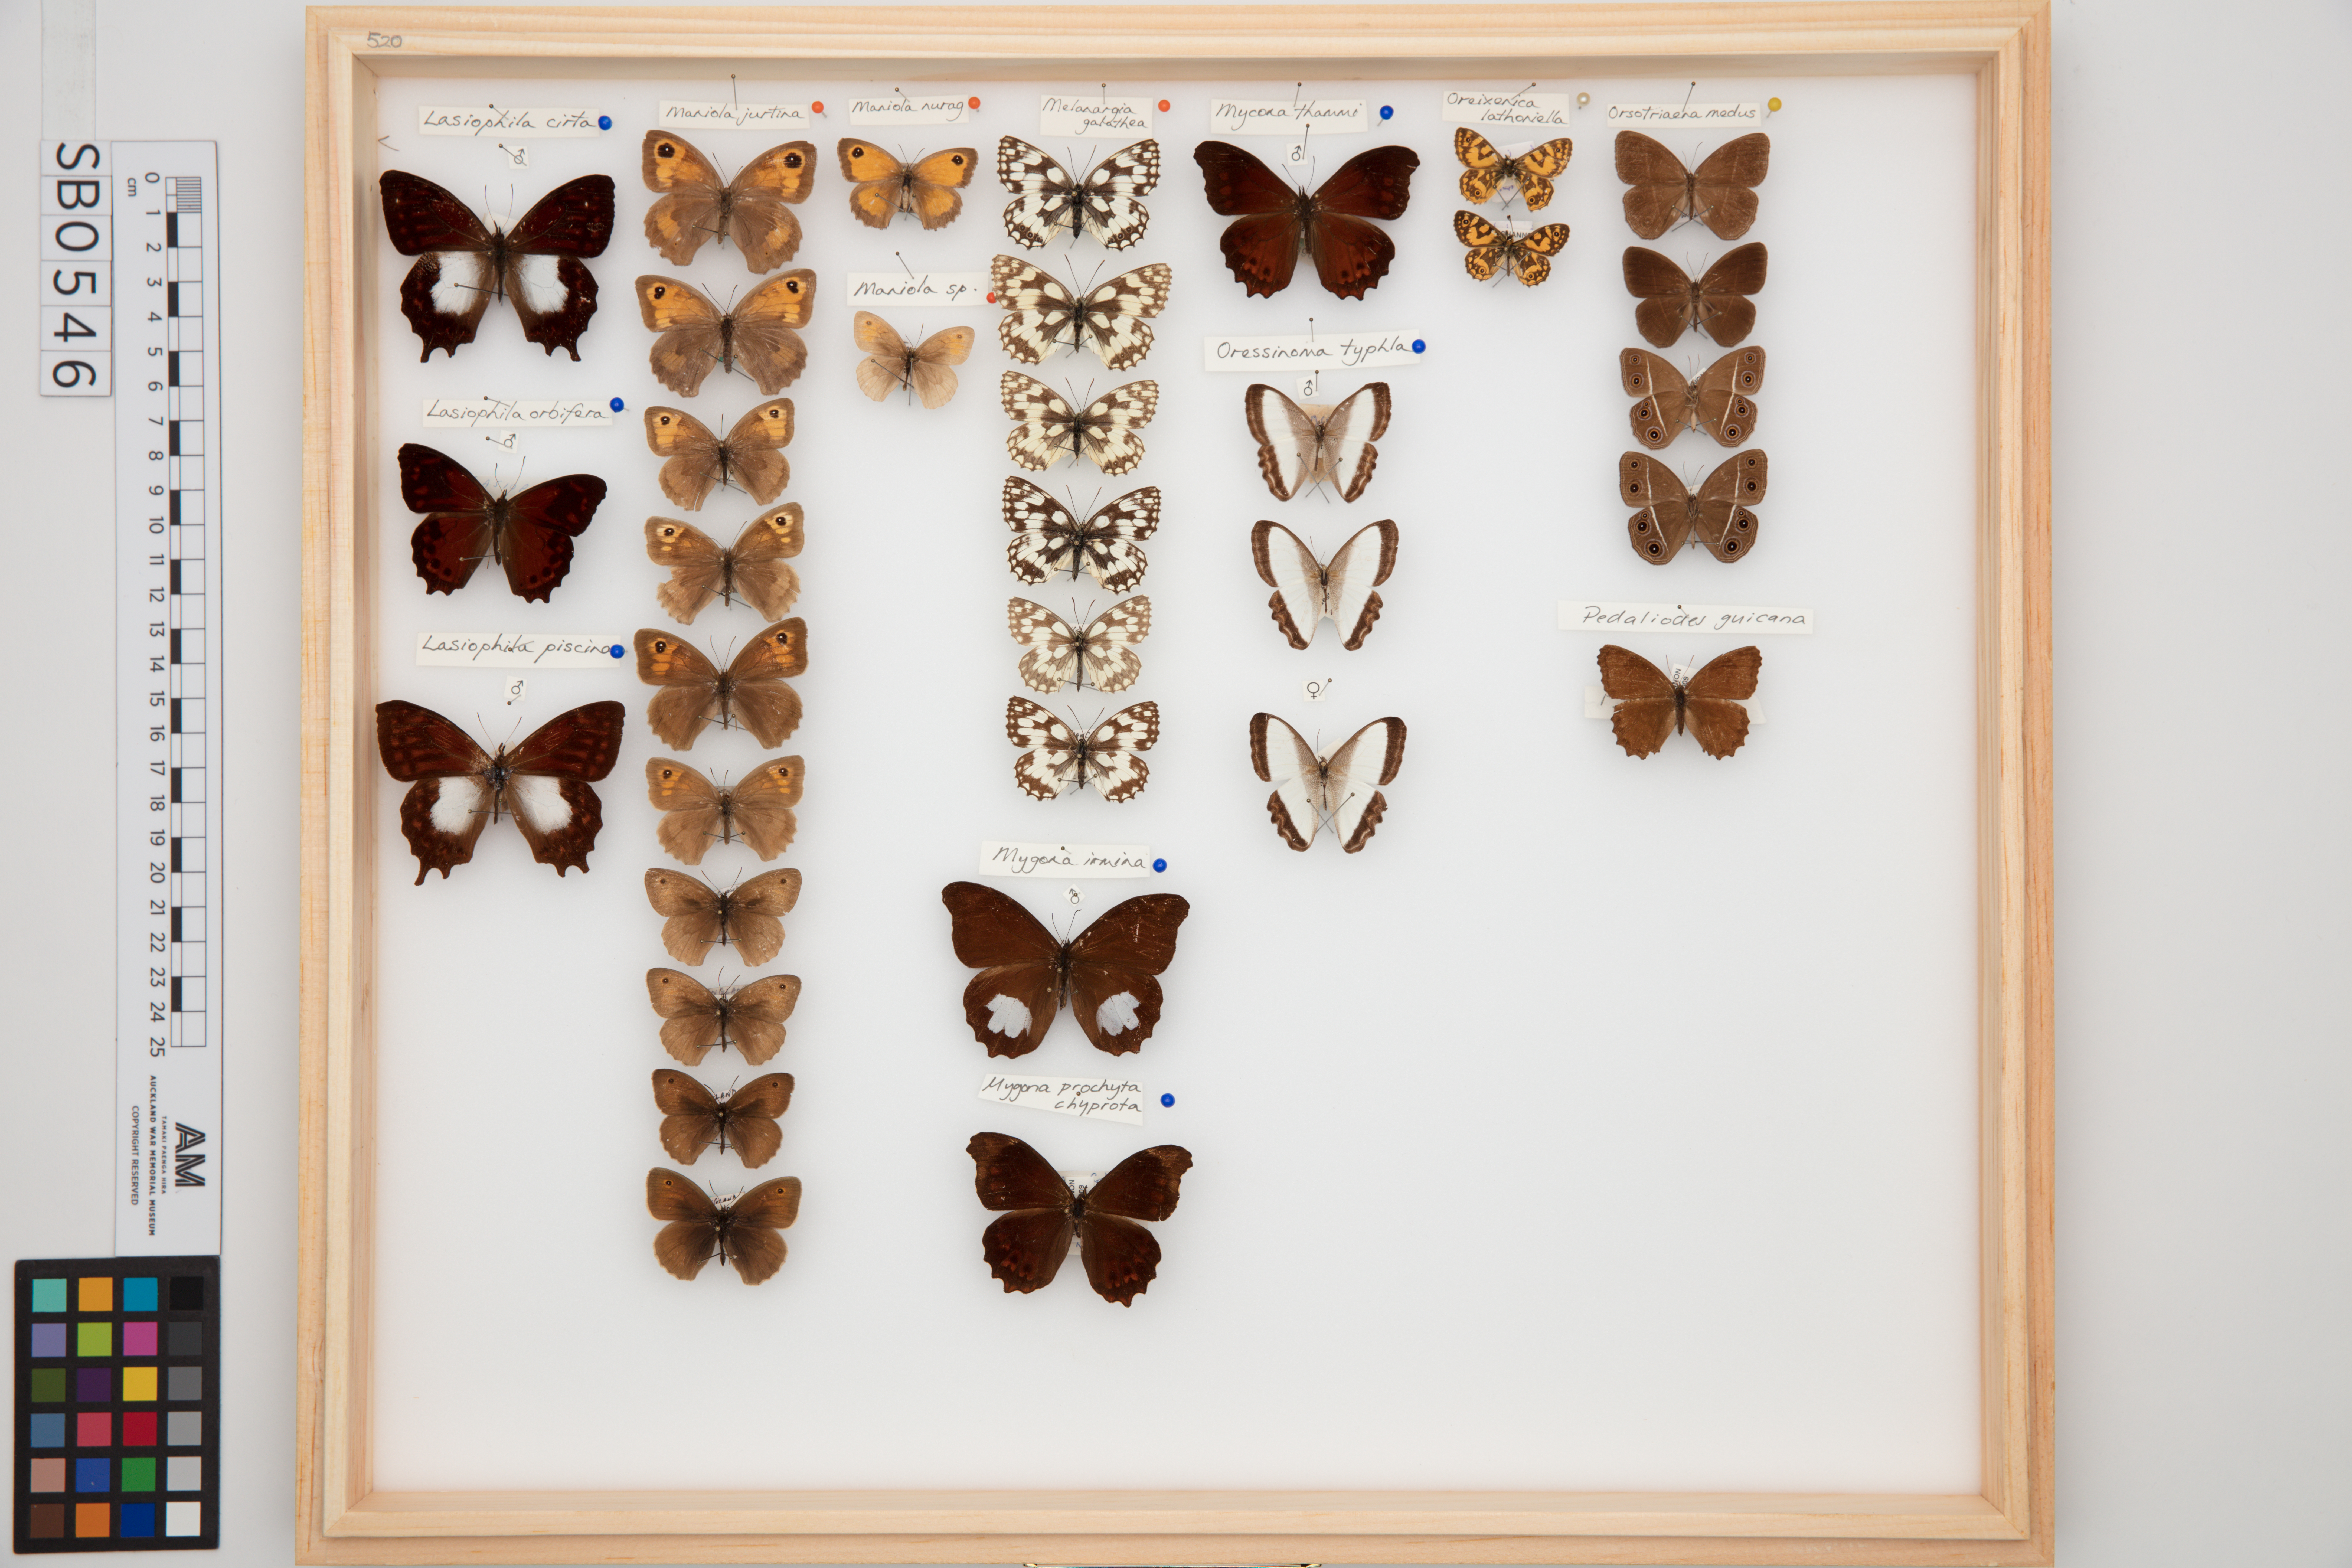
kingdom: Animalia
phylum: Arthropoda
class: Insecta
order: Lepidoptera
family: Nymphalidae
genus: Melanargia
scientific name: Melanargia galathea
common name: Marbled white
